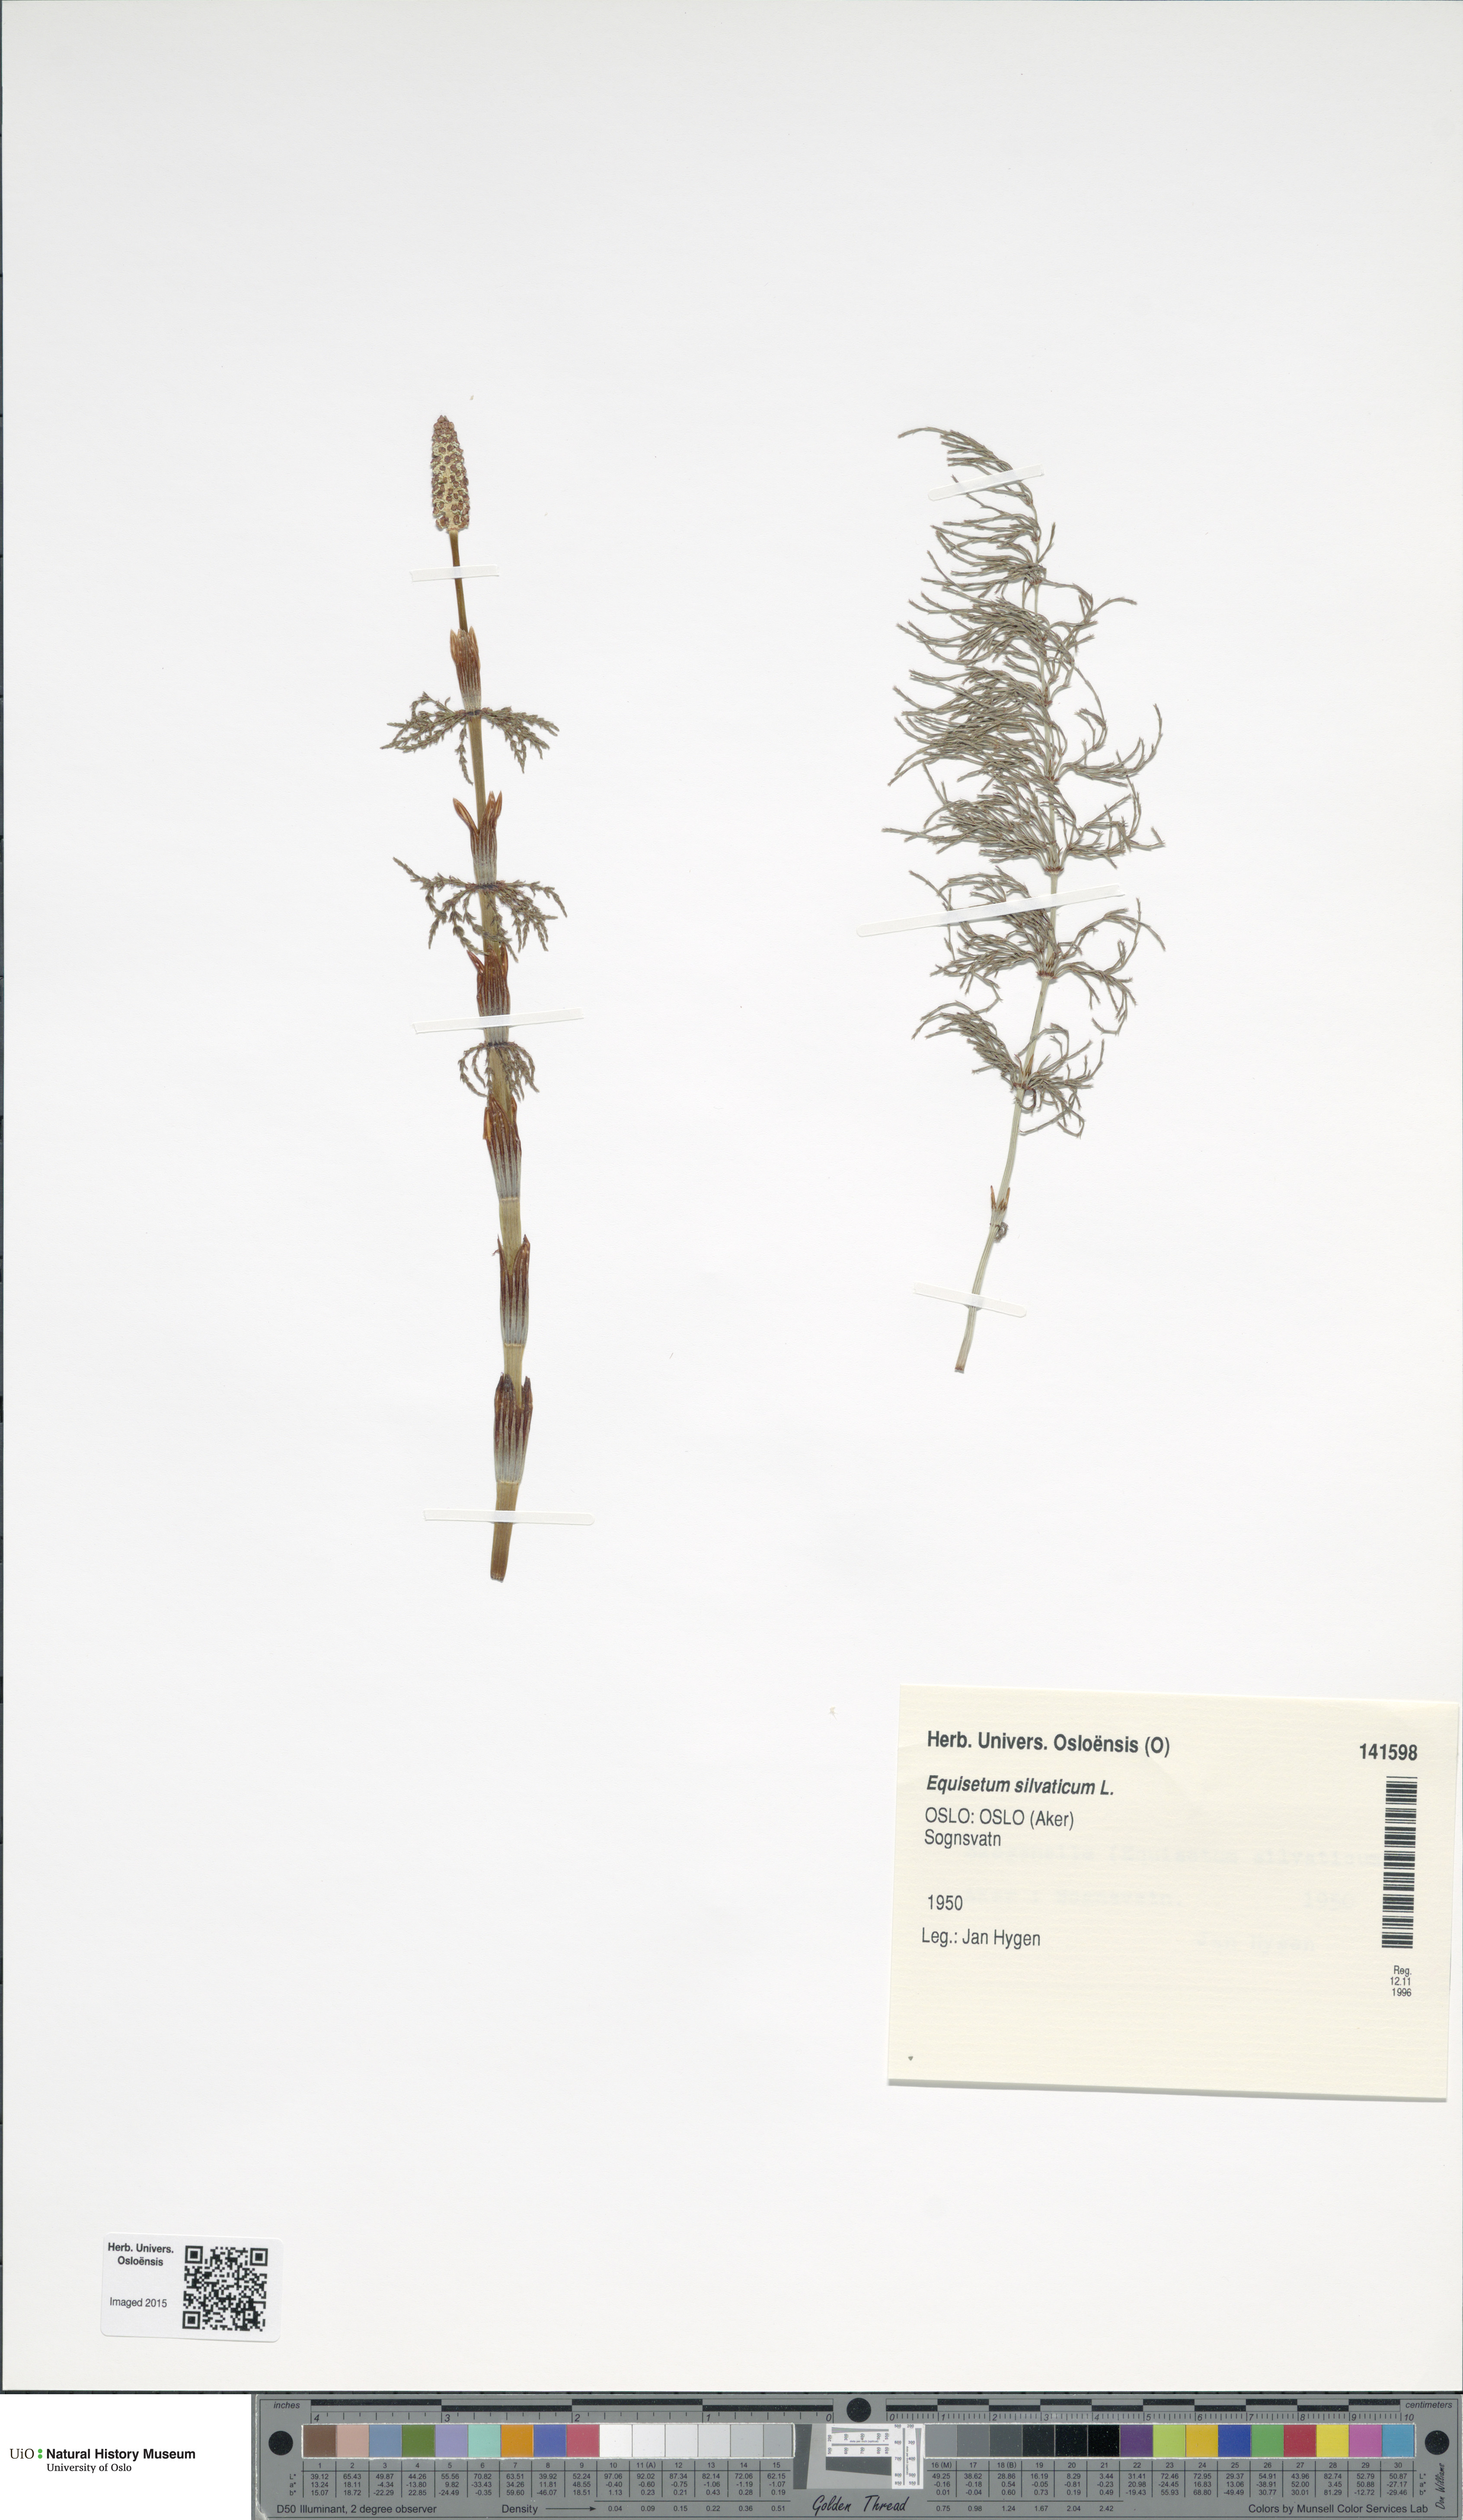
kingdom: Plantae
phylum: Tracheophyta
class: Polypodiopsida
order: Equisetales
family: Equisetaceae
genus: Equisetum
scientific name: Equisetum sylvaticum
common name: Wood horsetail
